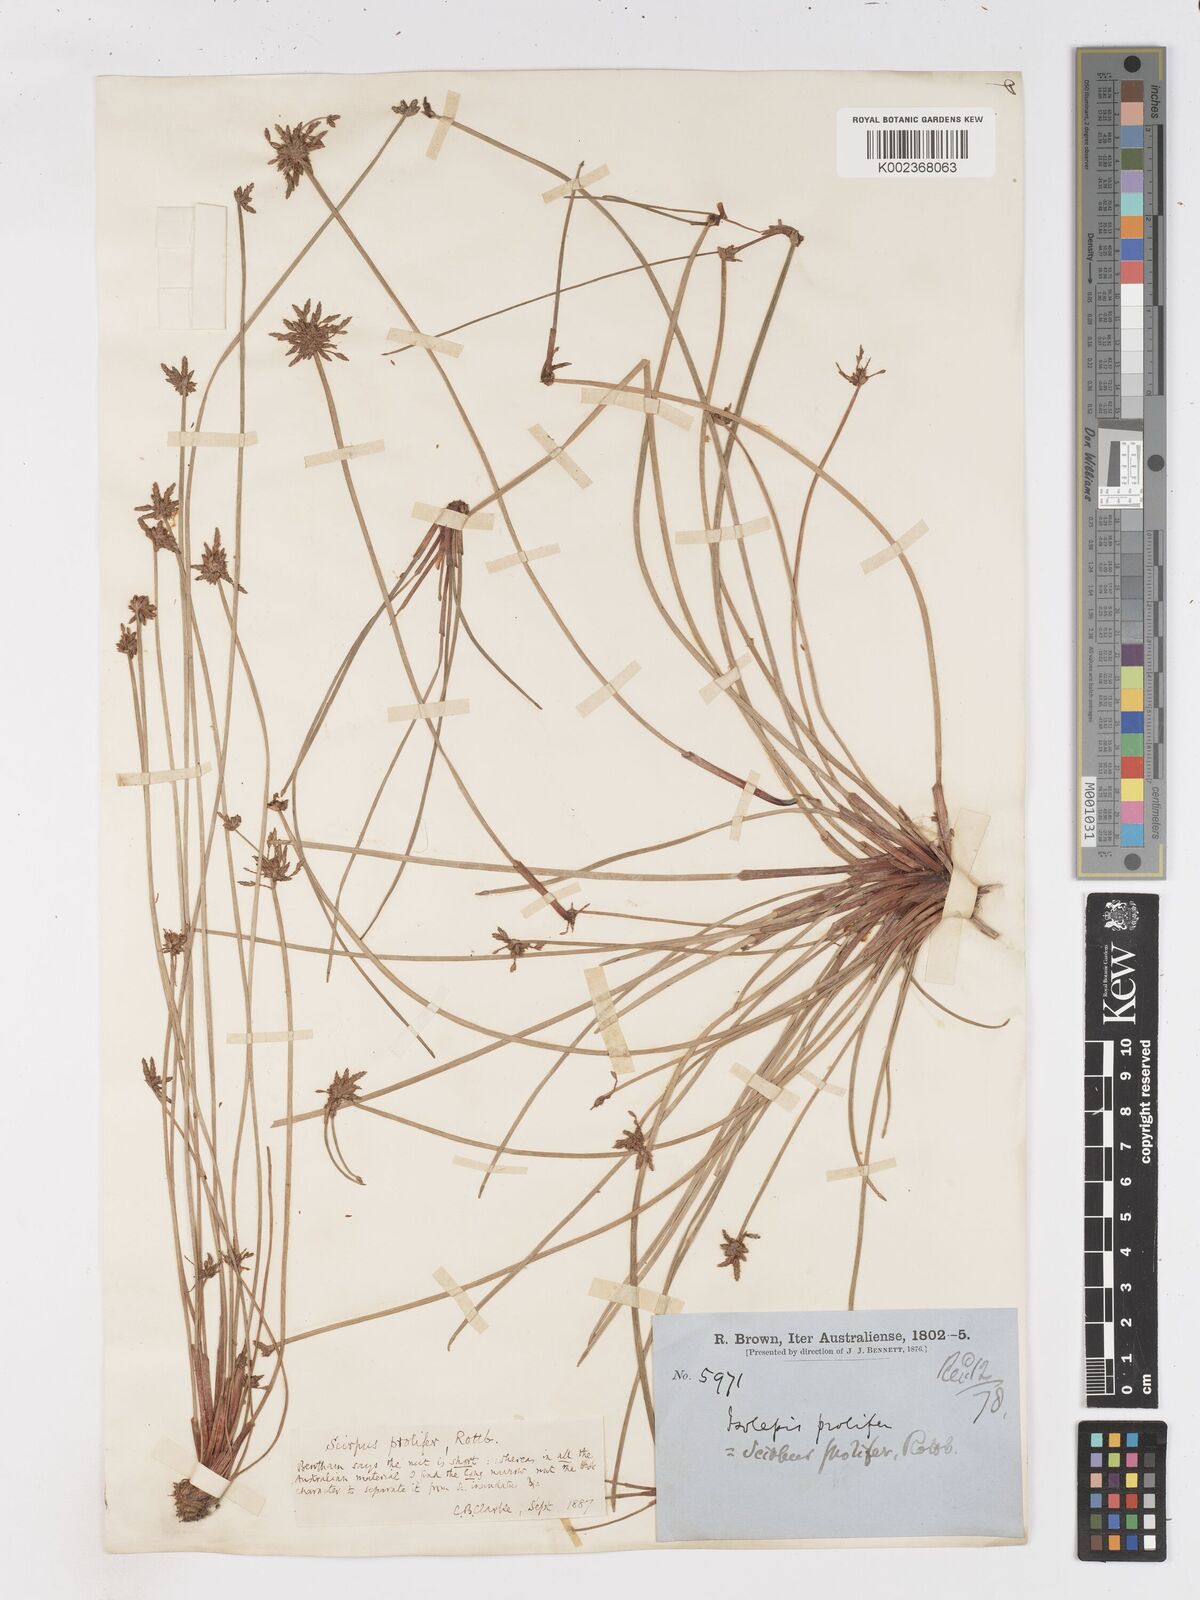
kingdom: Plantae
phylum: Tracheophyta
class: Liliopsida
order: Poales
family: Cyperaceae
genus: Isolepis
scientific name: Isolepis prolifera
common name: Proliferating bulrush
